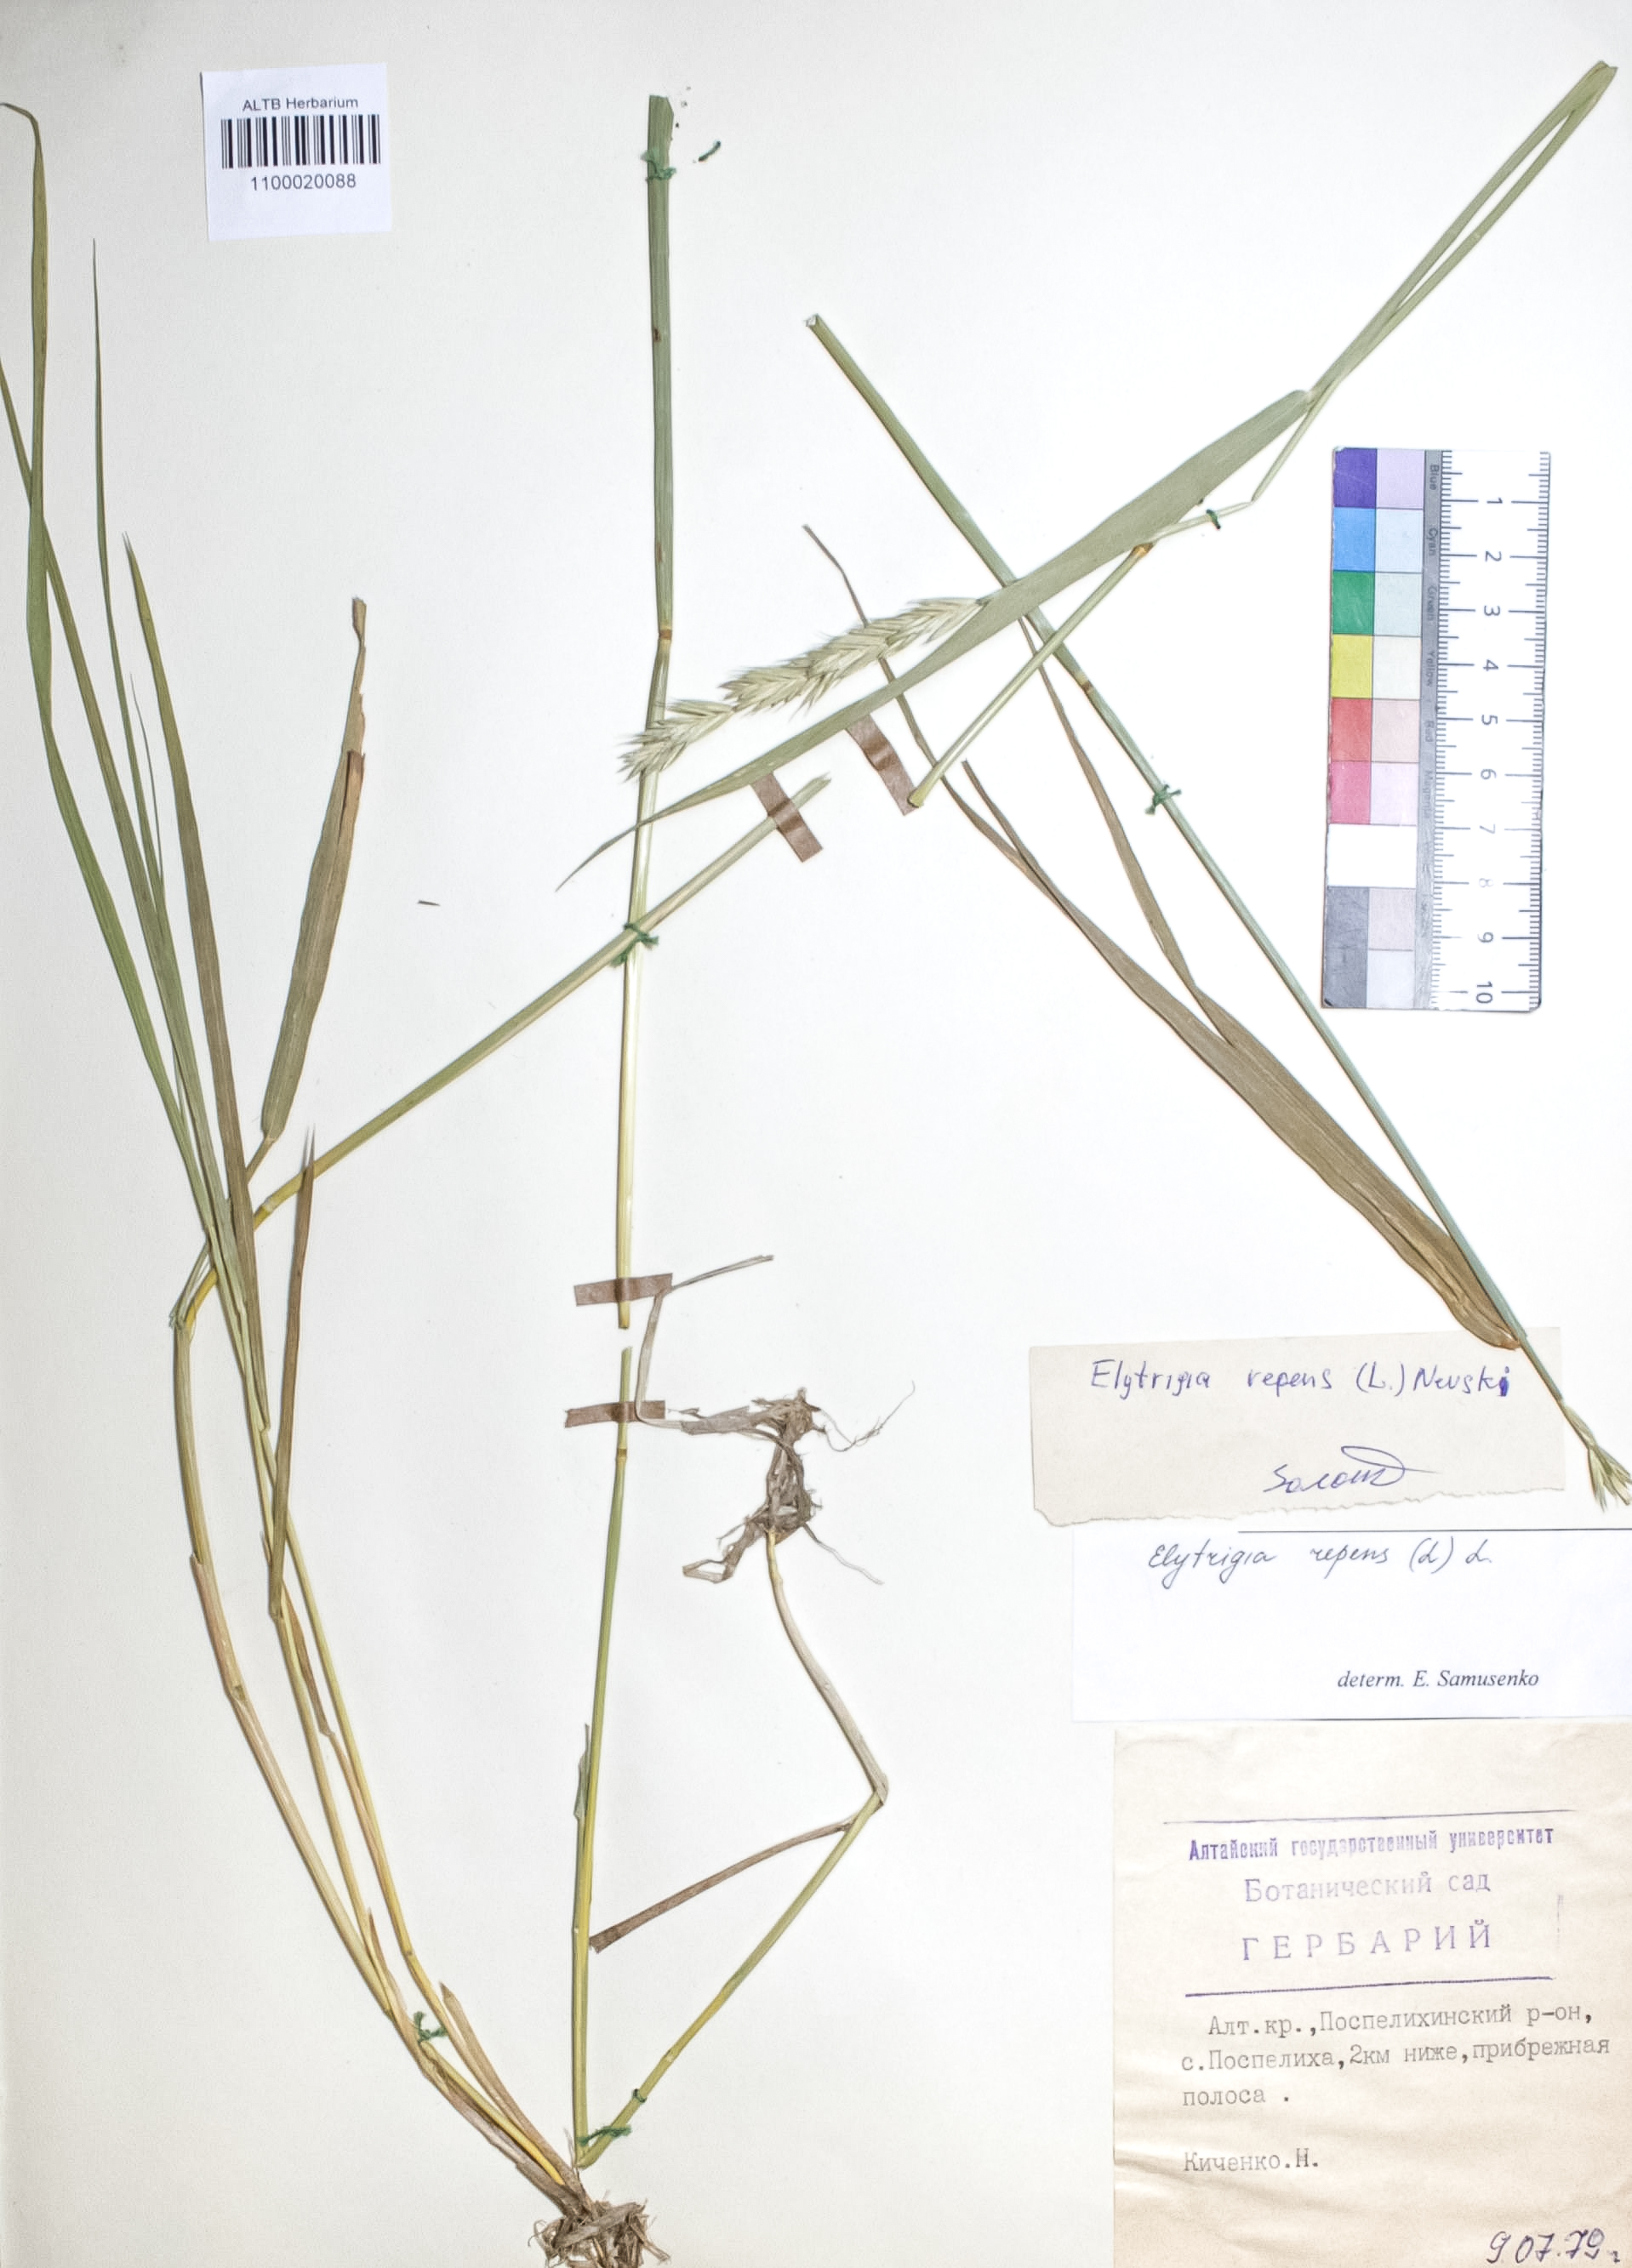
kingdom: Plantae
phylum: Tracheophyta
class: Liliopsida
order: Poales
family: Poaceae
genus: Elymus
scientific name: Elymus repens
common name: Quackgrass
